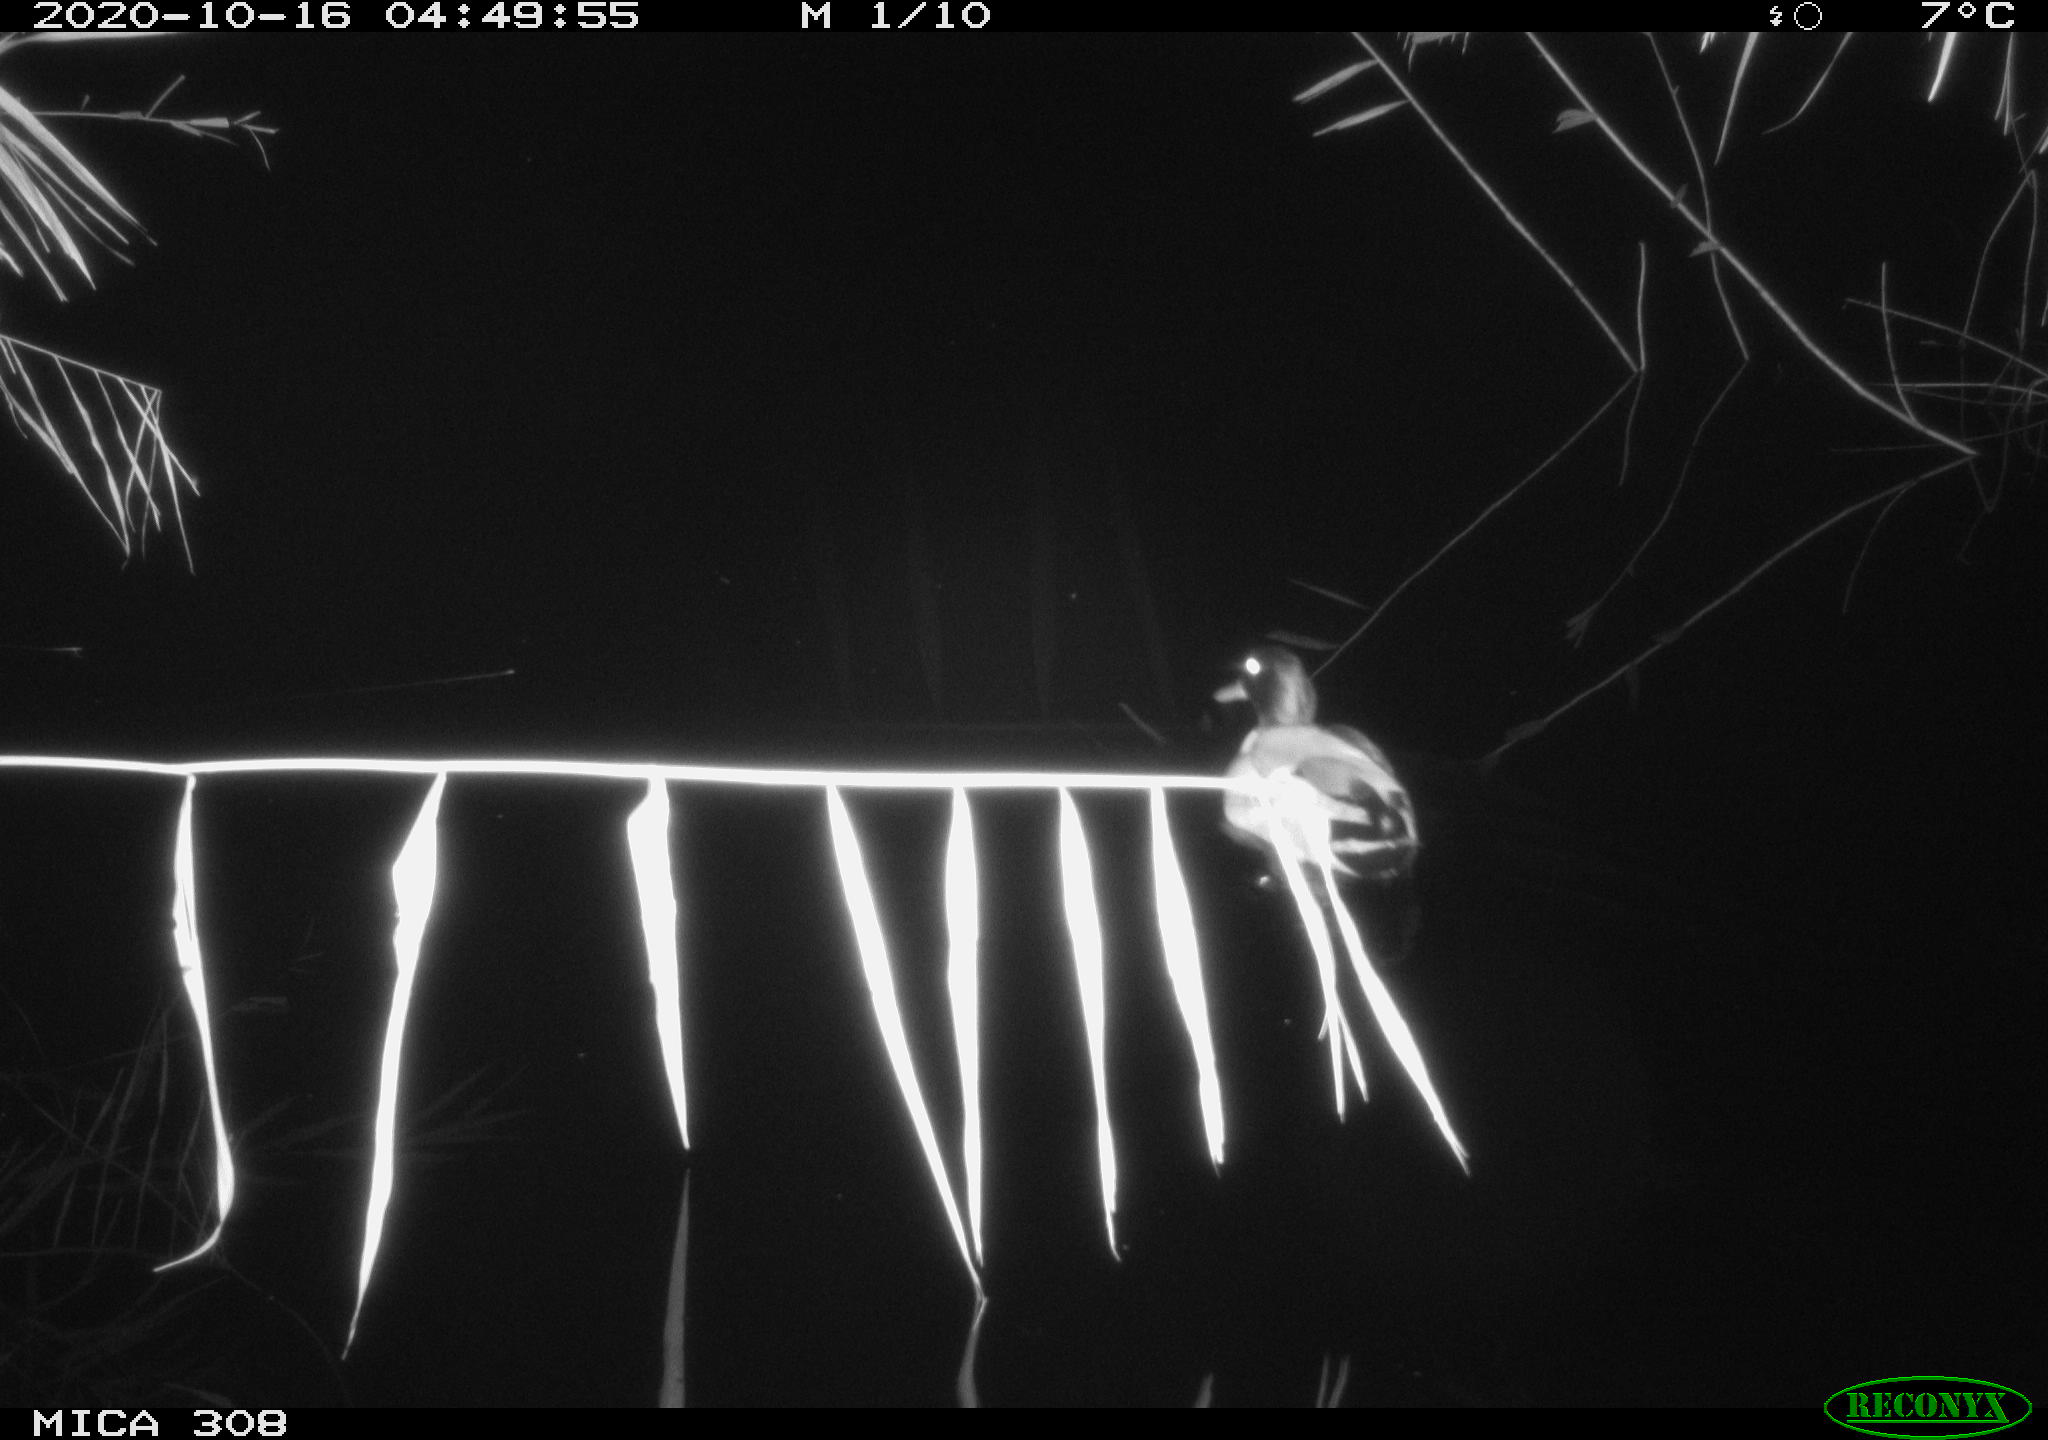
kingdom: Animalia
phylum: Chordata
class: Aves
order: Anseriformes
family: Anatidae
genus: Anas
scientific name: Anas platyrhynchos
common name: Mallard
